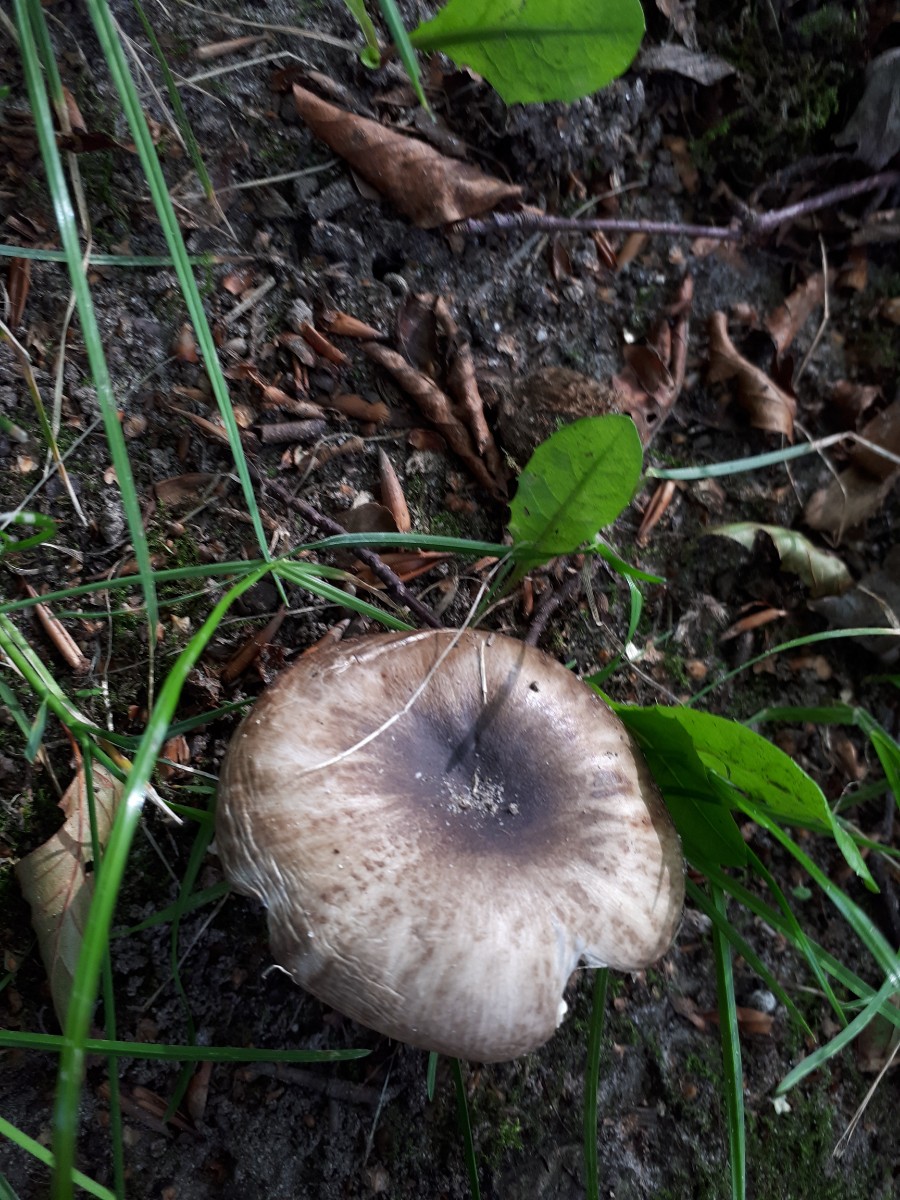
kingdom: Fungi
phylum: Basidiomycota
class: Agaricomycetes
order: Russulales
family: Russulaceae
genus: Russula
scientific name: Russula amoenolens
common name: skarp kam-skørhat
